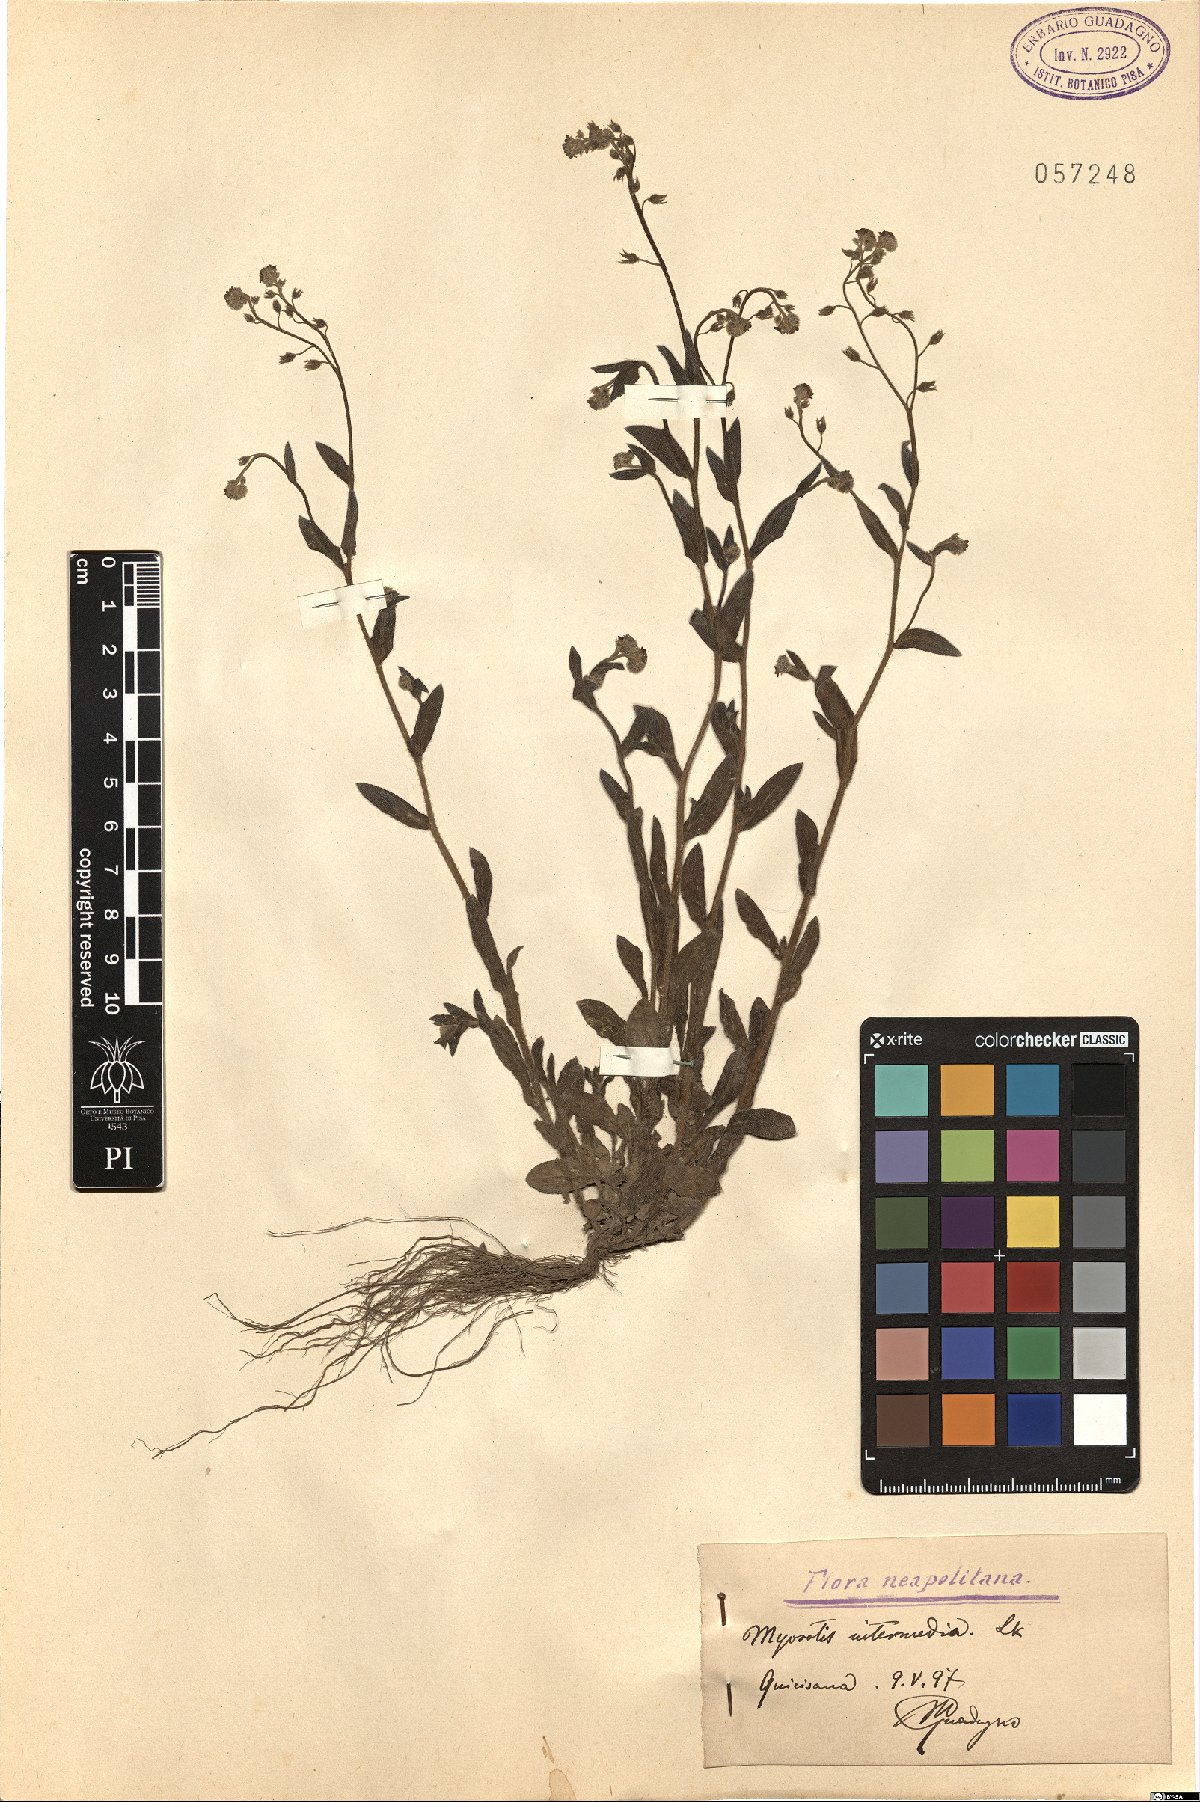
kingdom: Plantae
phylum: Tracheophyta
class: Magnoliopsida
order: Boraginales
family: Boraginaceae
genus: Myosotis
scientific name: Myosotis arvensis
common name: Field forget-me-not
